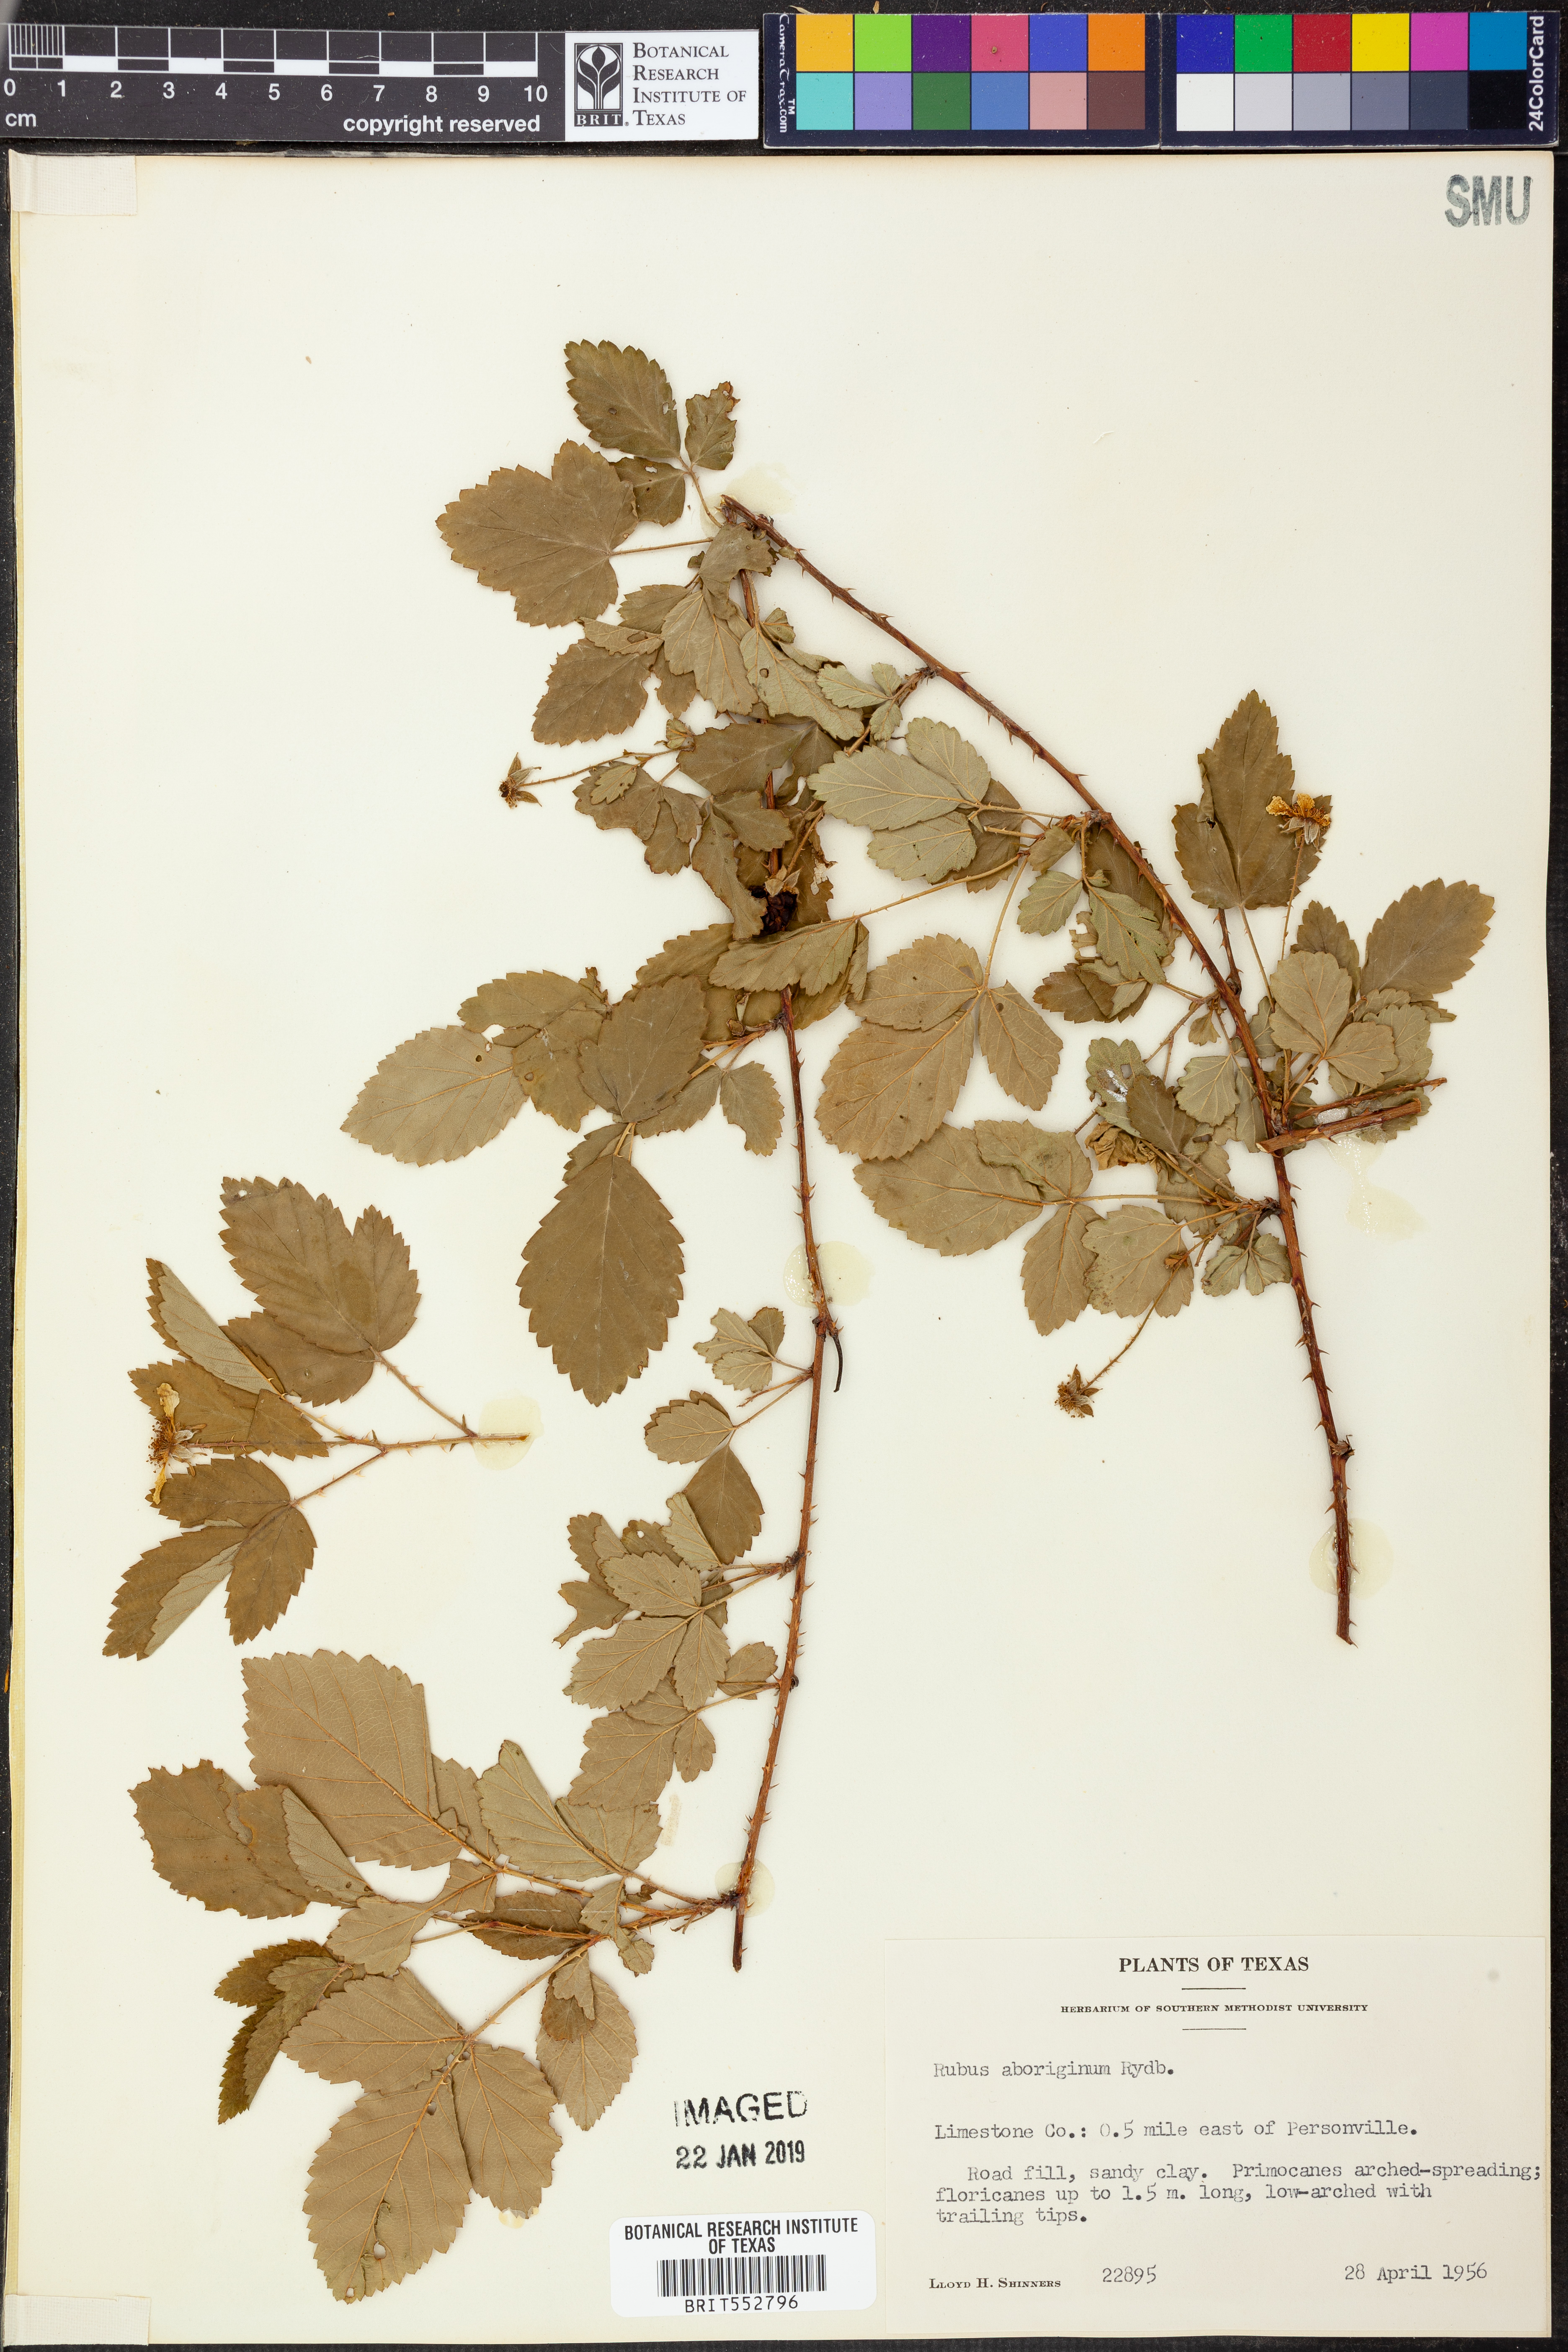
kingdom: Plantae
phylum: Tracheophyta
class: Magnoliopsida
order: Rosales
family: Rosaceae
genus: Rubus
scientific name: Rubus aboriginum
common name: Mayes dewberry
